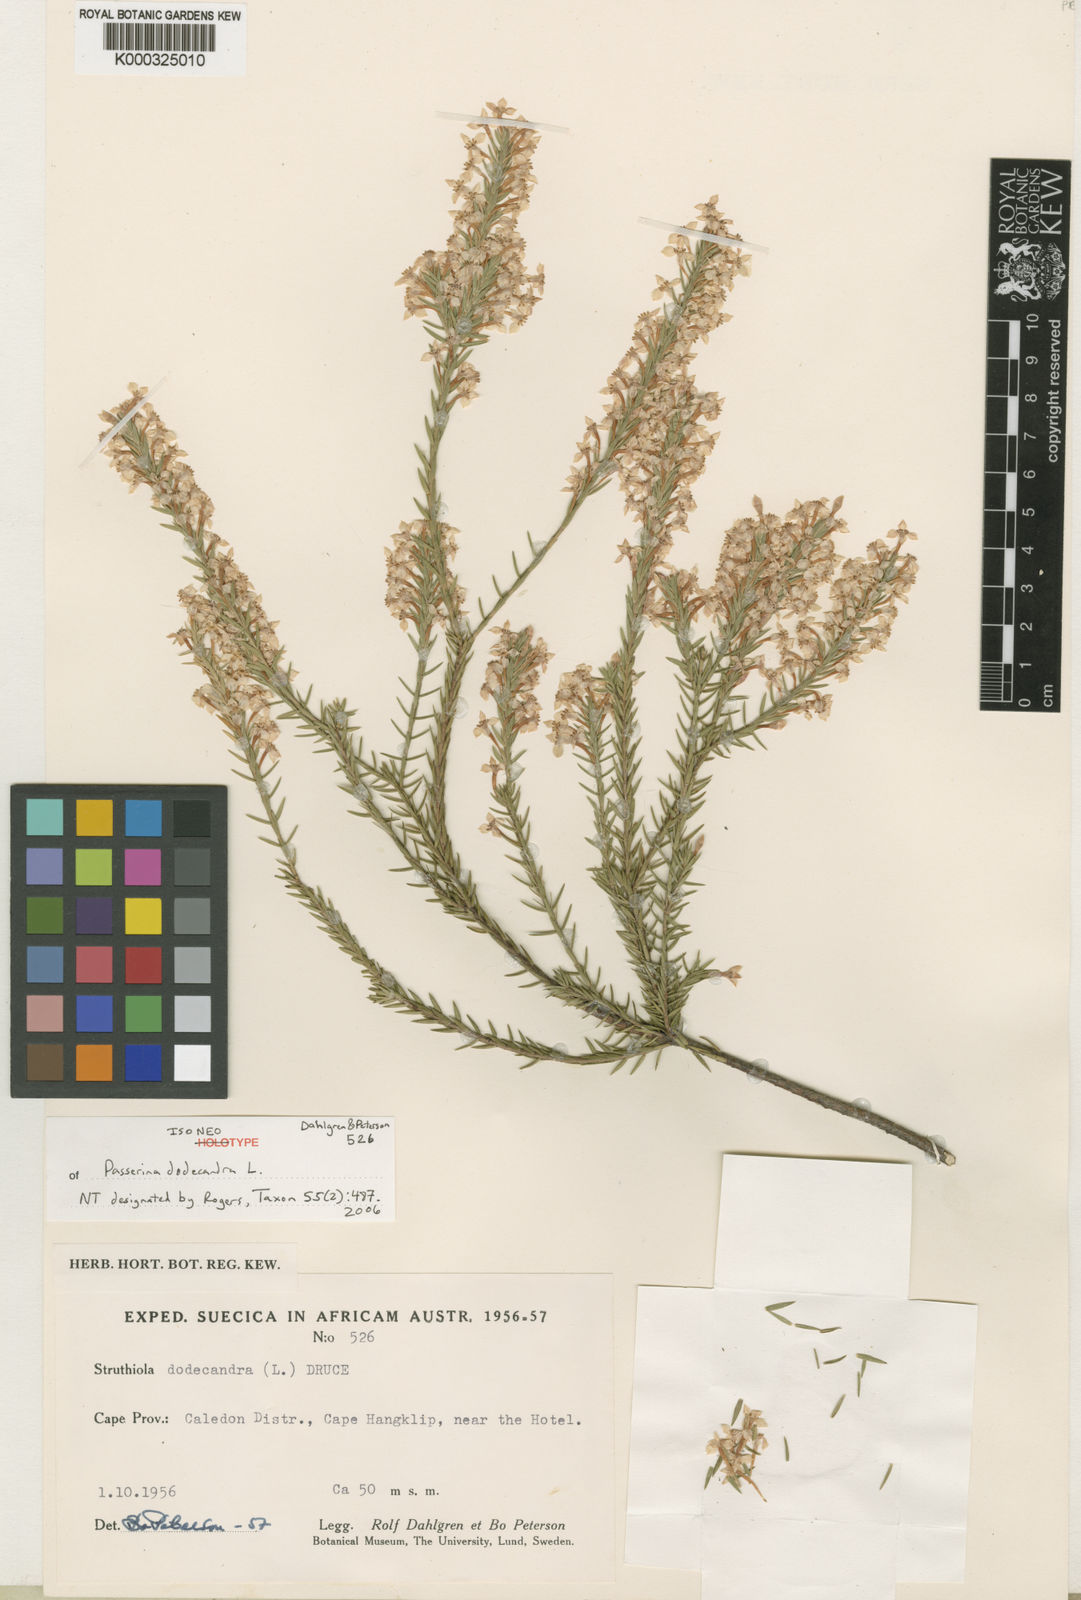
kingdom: Plantae
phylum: Tracheophyta
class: Magnoliopsida
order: Malvales
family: Thymelaeaceae
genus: Struthiola
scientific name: Struthiola dodecandra
